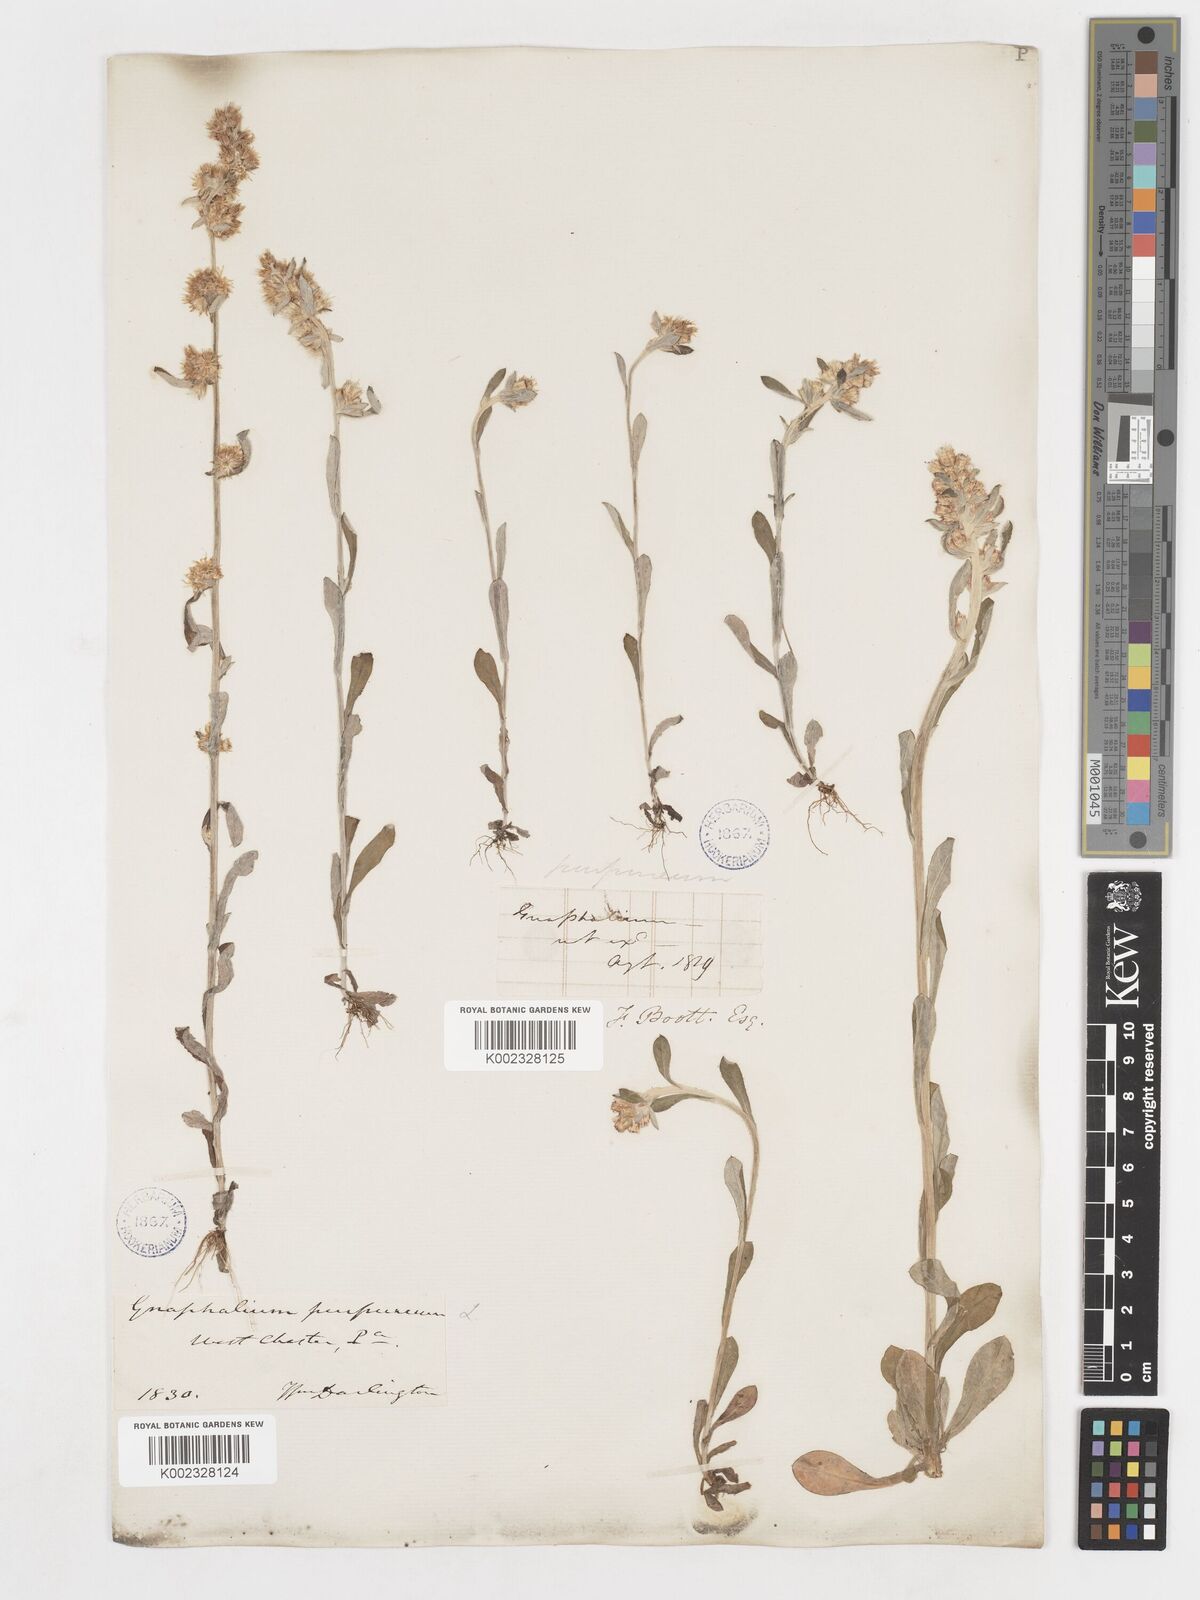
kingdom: Plantae
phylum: Tracheophyta
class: Magnoliopsida
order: Asterales
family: Asteraceae
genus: Gamochaeta
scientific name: Gamochaeta purpurea
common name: Purple cudweed
